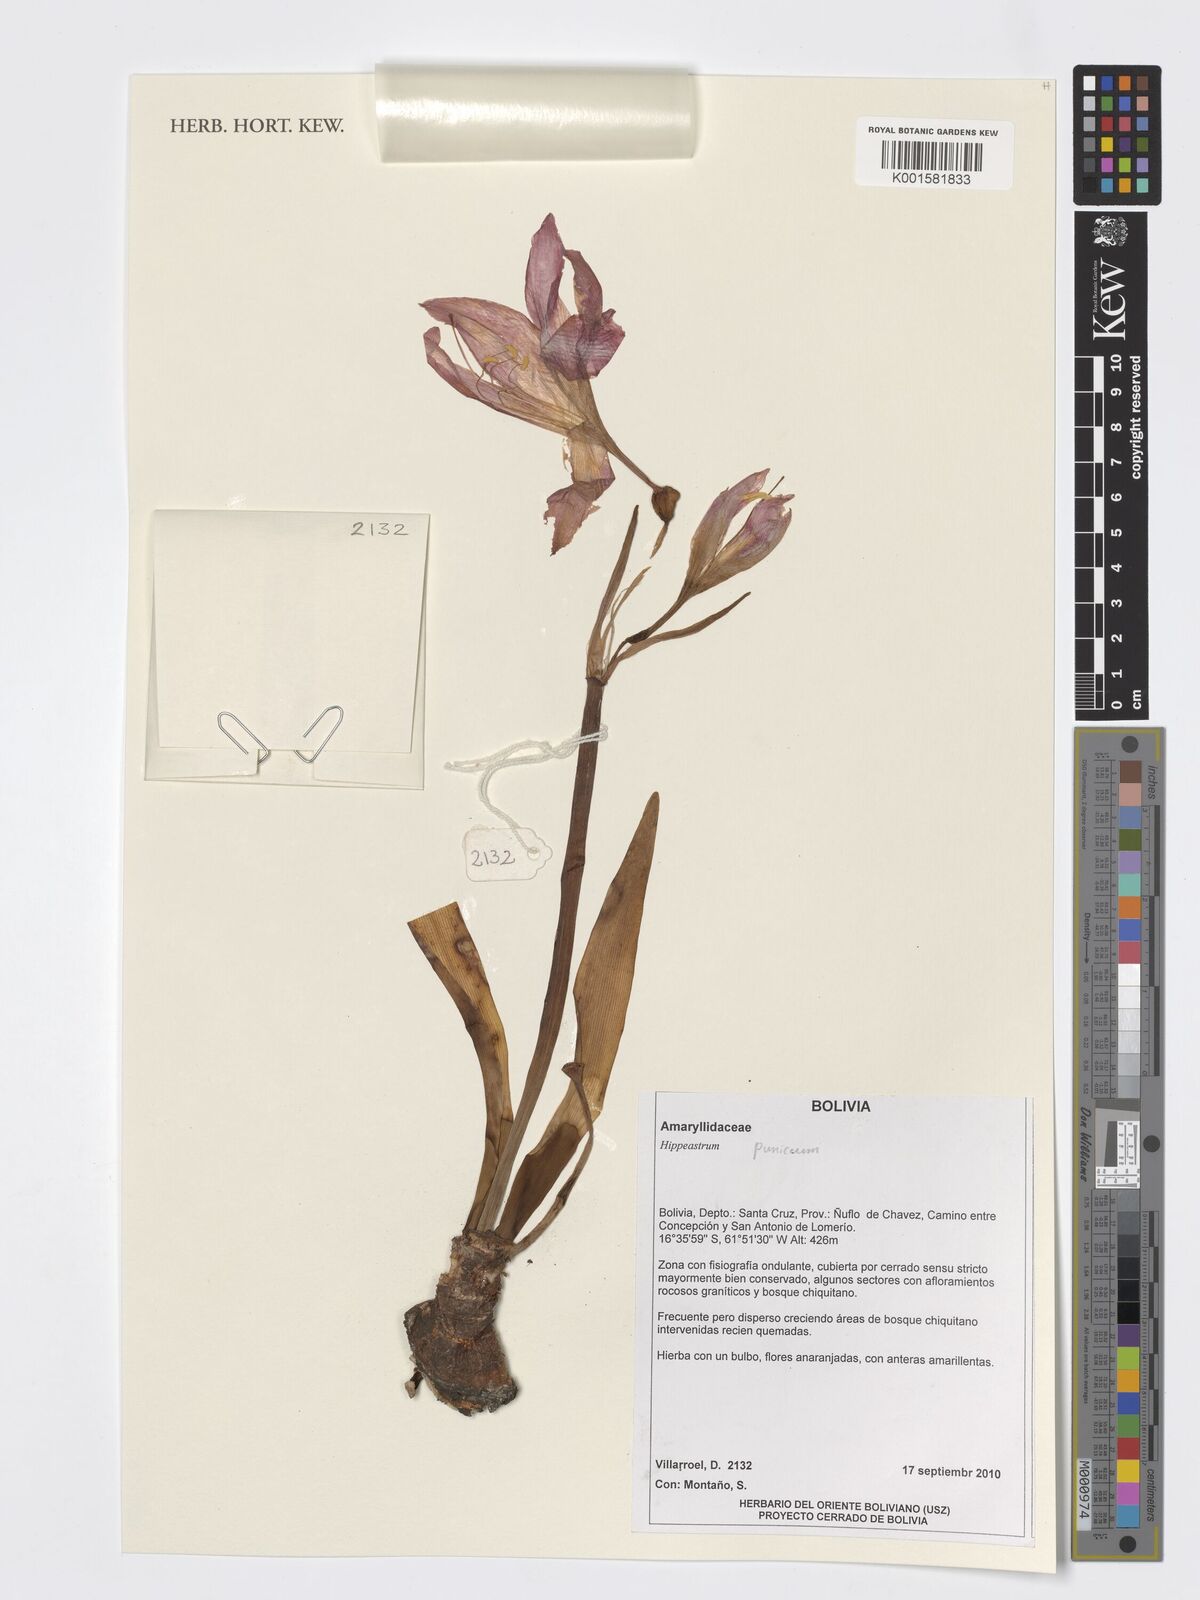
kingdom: Plantae
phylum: Tracheophyta
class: Liliopsida
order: Asparagales
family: Amaryllidaceae
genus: Hippeastrum
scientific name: Hippeastrum puniceum
